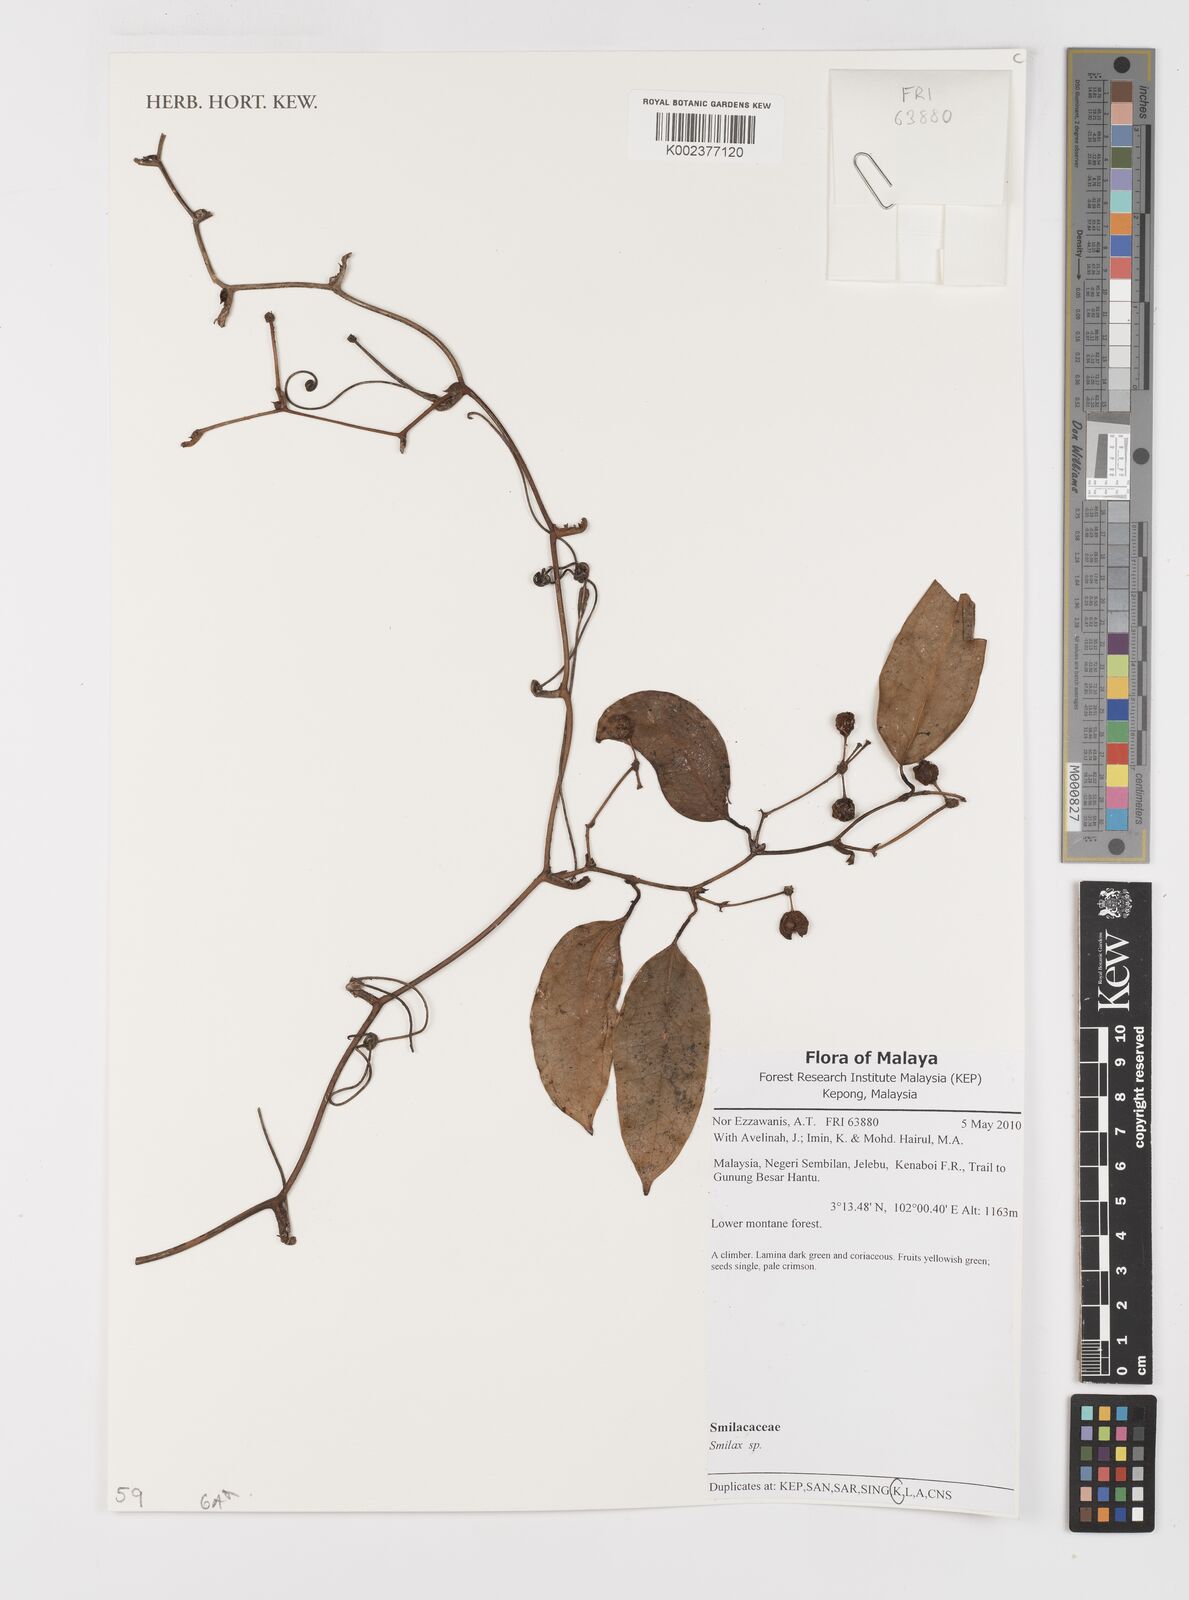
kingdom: Plantae
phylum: Tracheophyta
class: Liliopsida
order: Liliales
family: Smilacaceae
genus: Smilax
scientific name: Smilax
